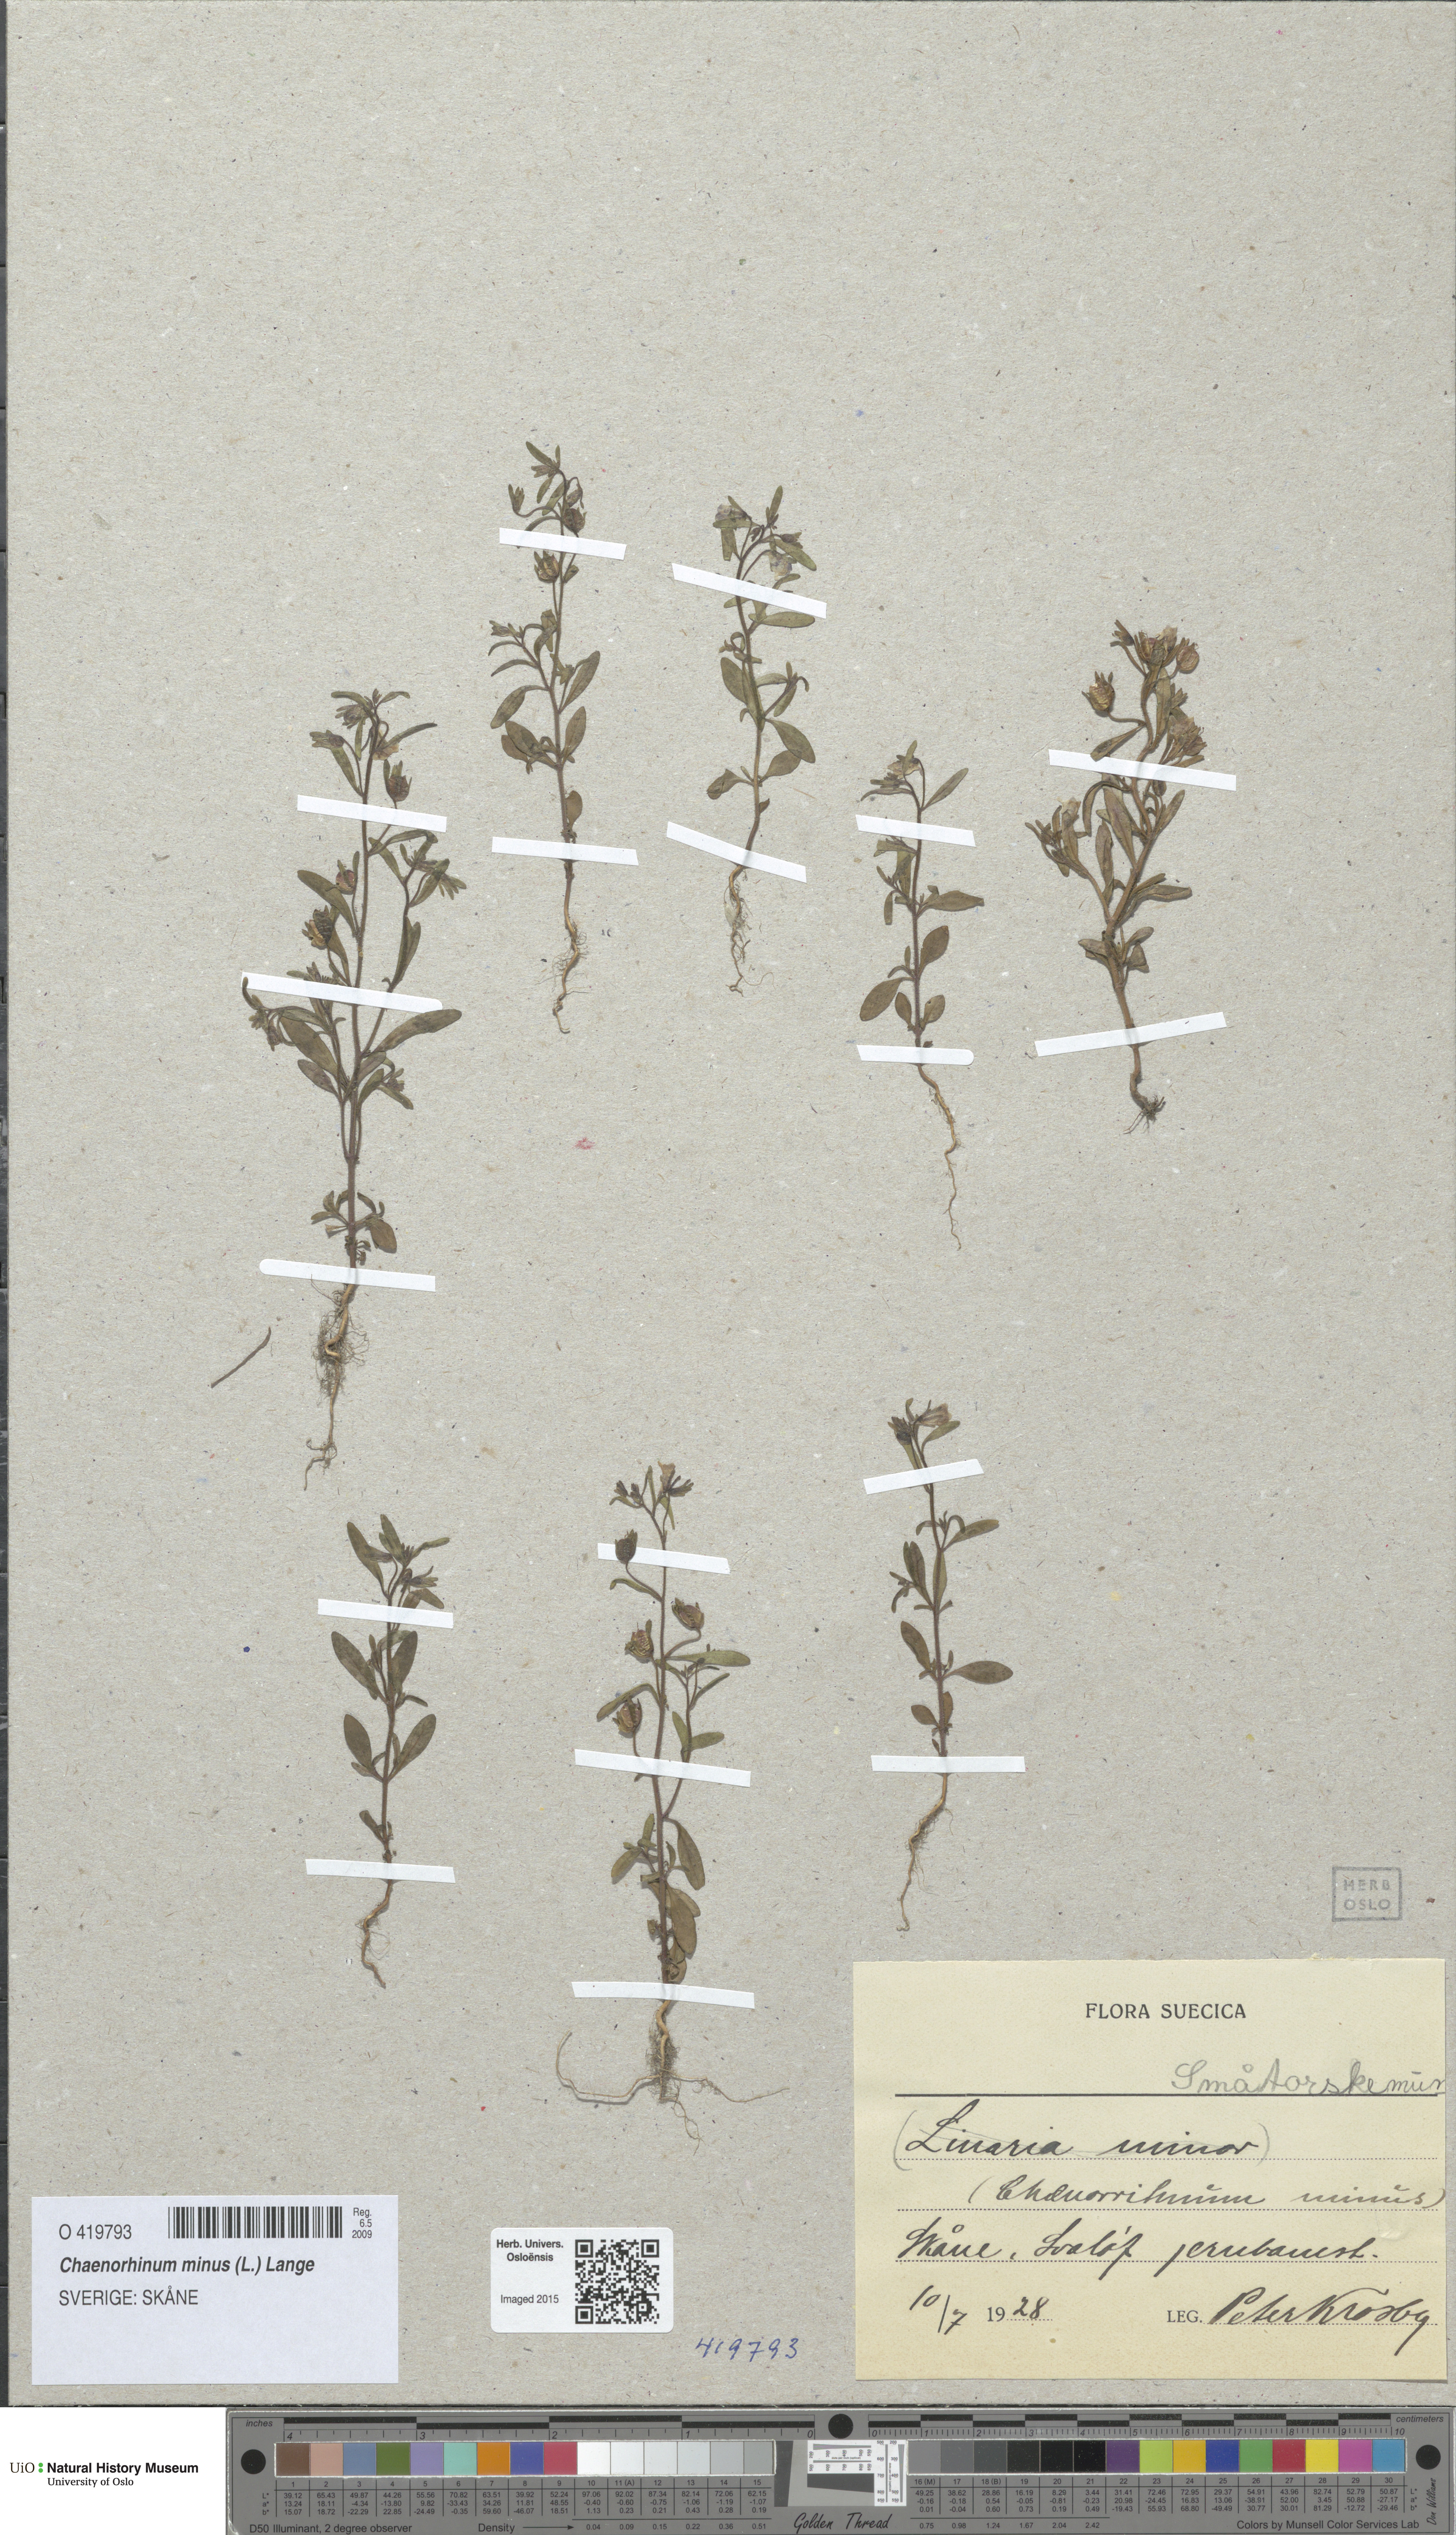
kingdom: Plantae
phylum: Tracheophyta
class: Magnoliopsida
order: Lamiales
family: Plantaginaceae
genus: Chaenorhinum
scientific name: Chaenorhinum minus
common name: Dwarf snapdragon
